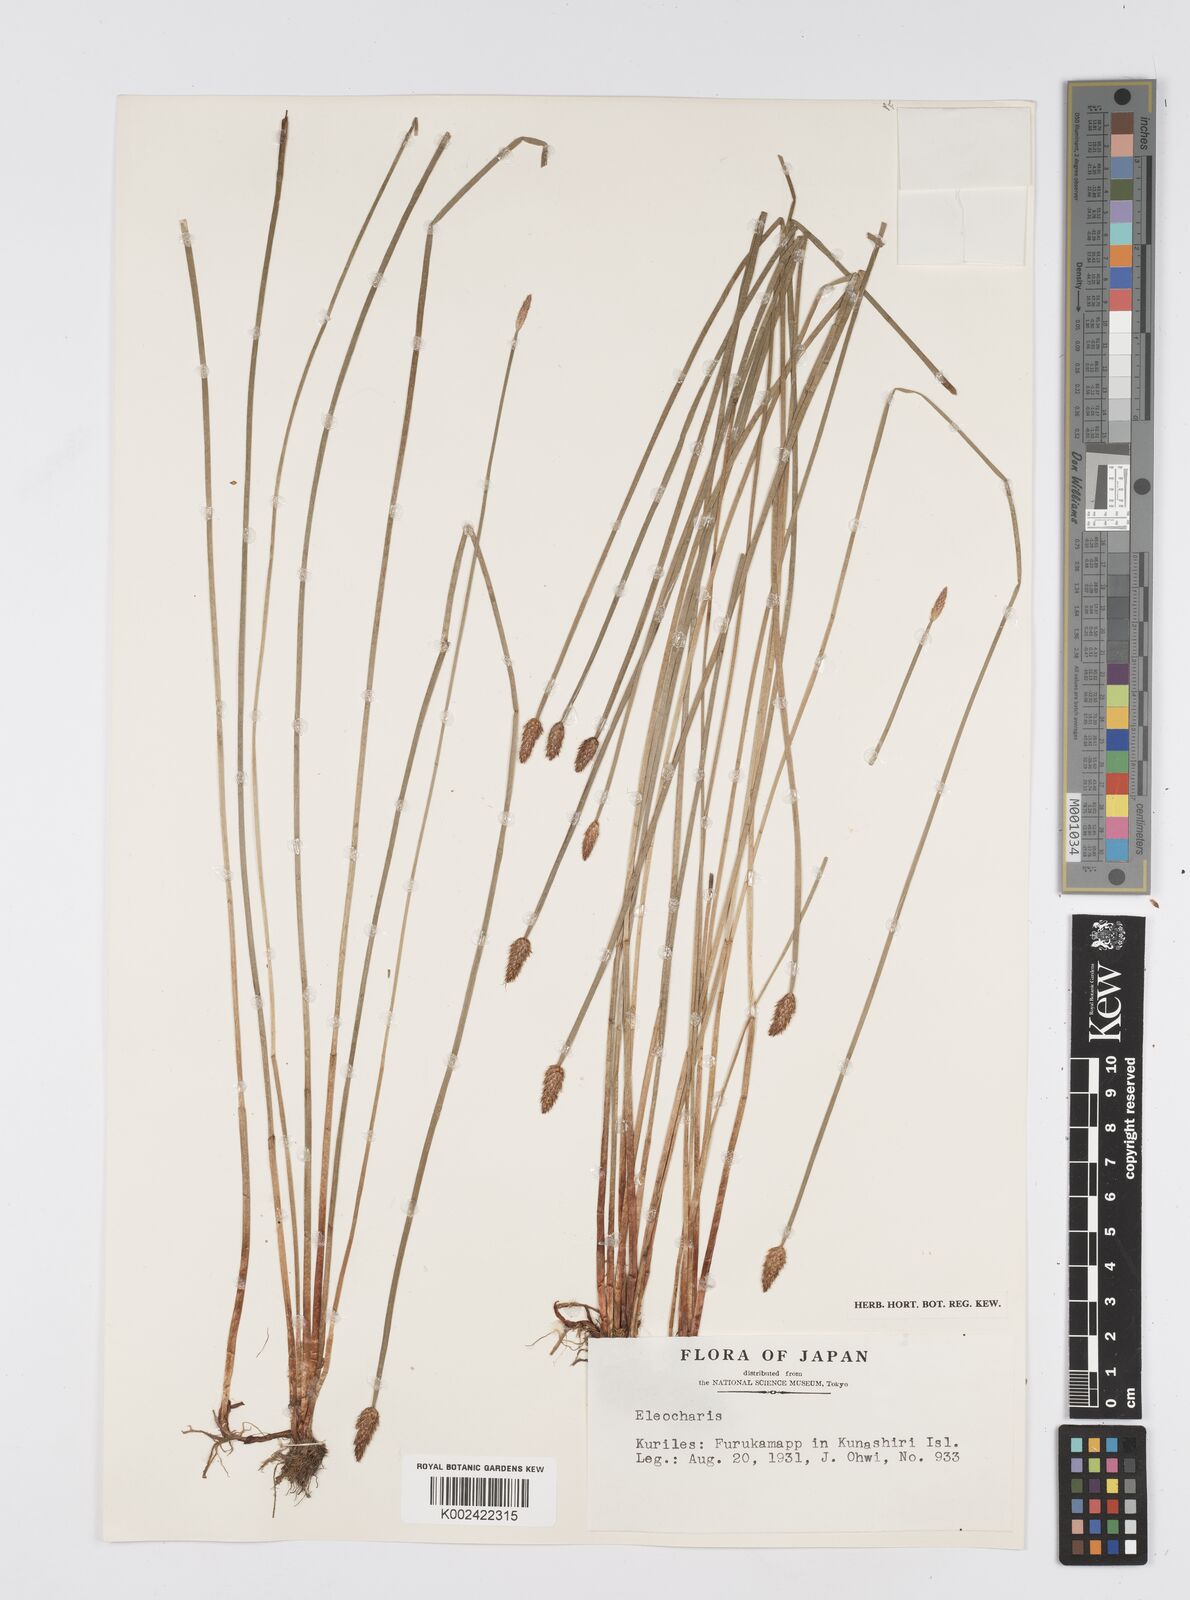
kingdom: Plantae
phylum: Tracheophyta
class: Liliopsida
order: Poales
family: Cyperaceae
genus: Eleocharis
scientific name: Eleocharis
